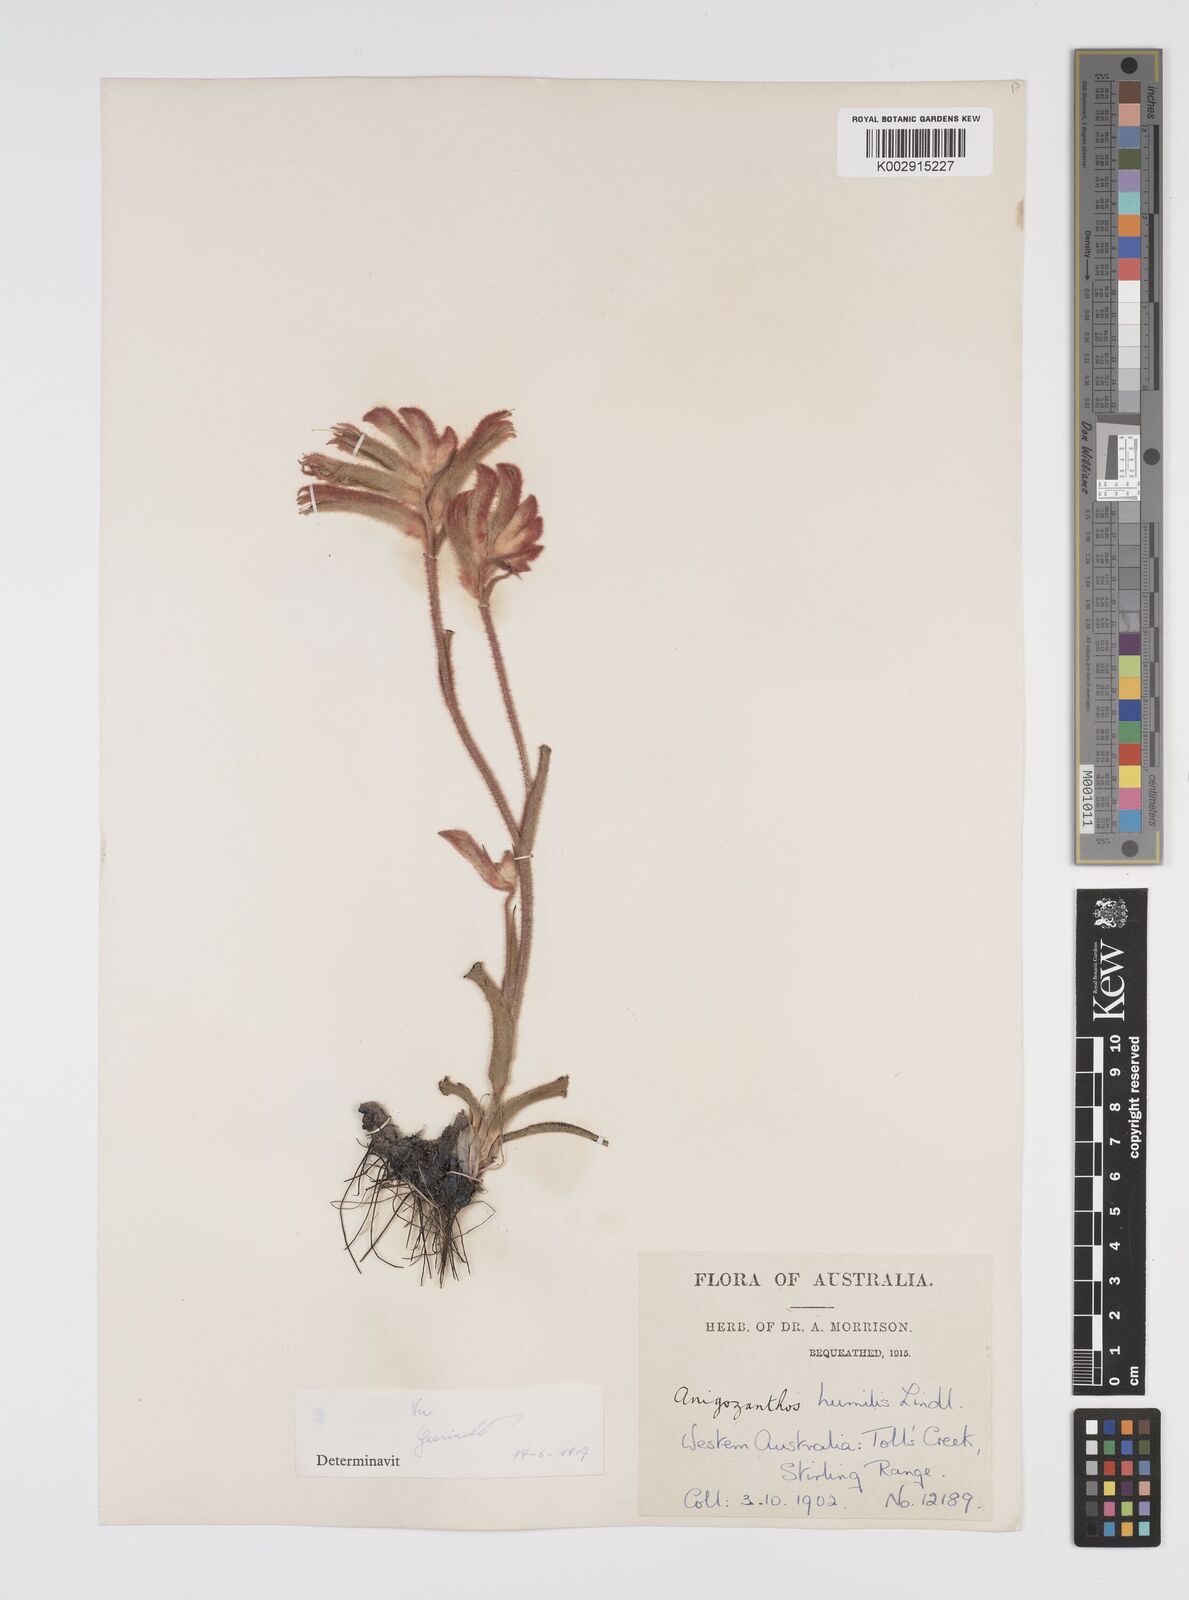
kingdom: Plantae
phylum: Tracheophyta
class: Liliopsida
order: Commelinales
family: Haemodoraceae
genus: Anigozanthos
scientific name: Anigozanthos humilis
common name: Cat's-paw
